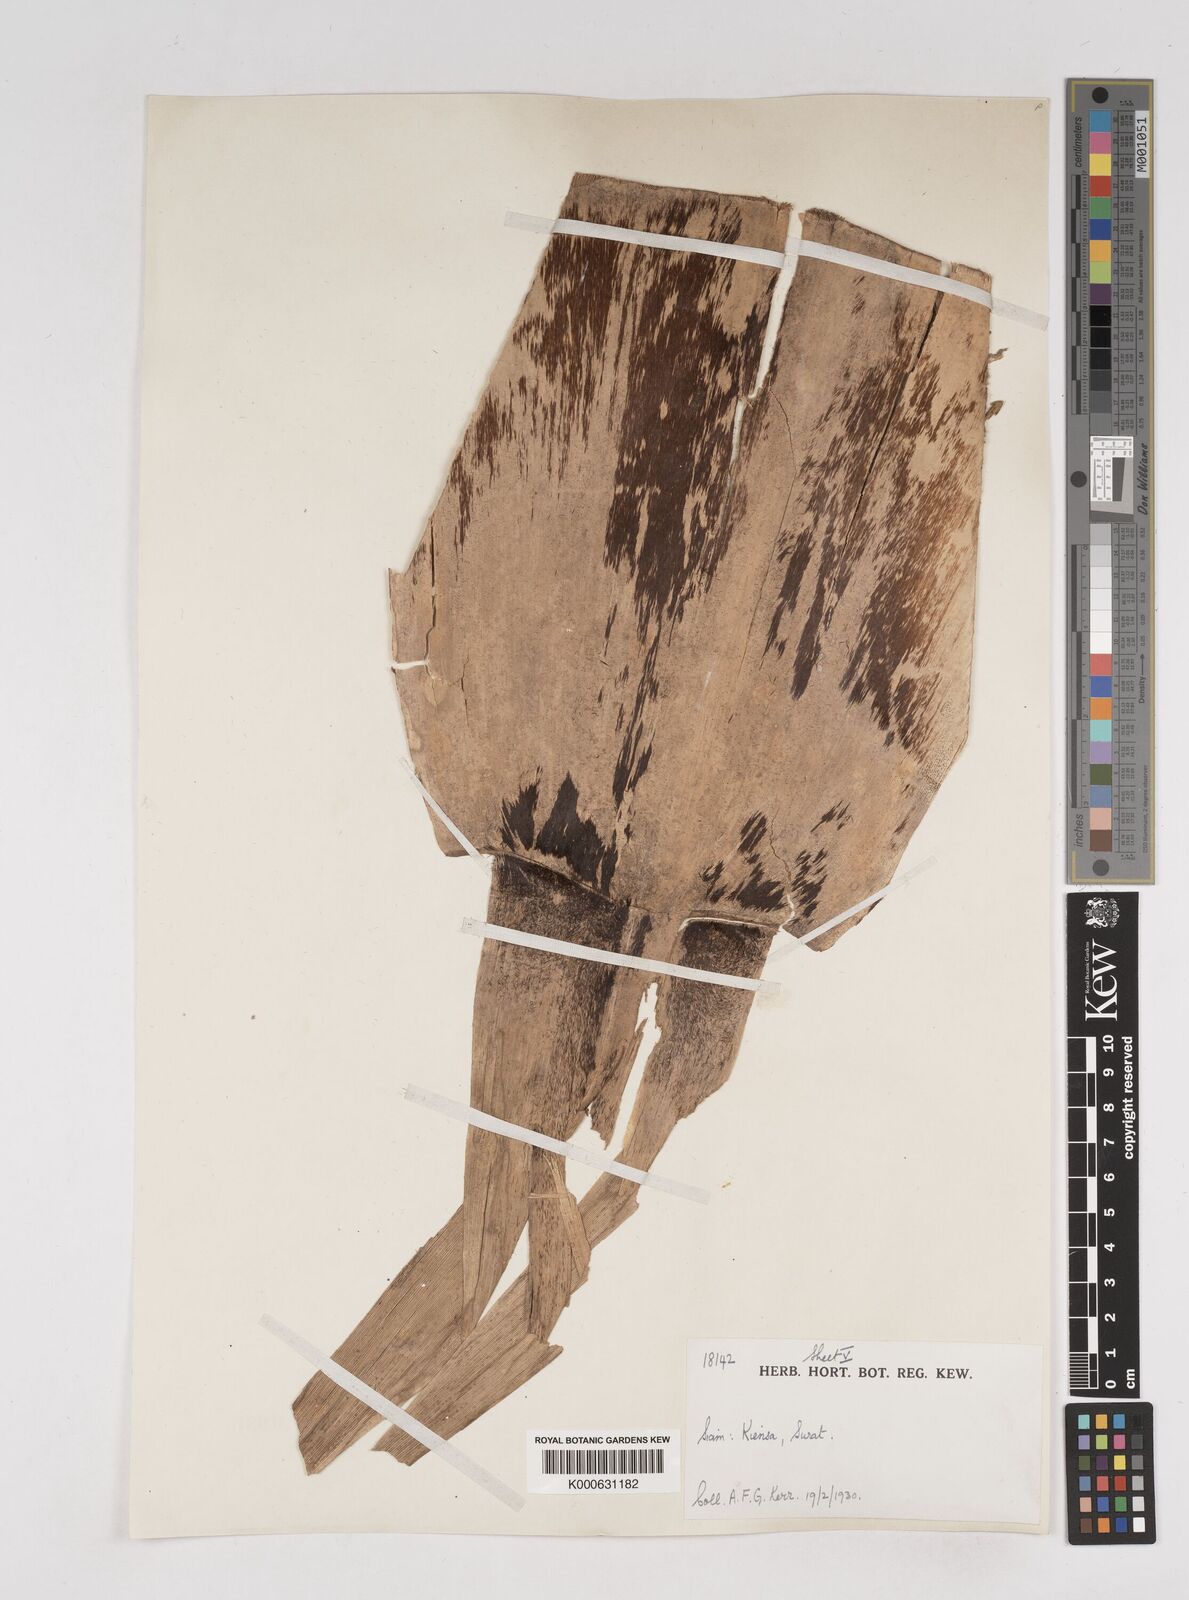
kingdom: Plantae
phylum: Tracheophyta
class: Liliopsida
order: Poales
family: Poaceae
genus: Gigantochloa
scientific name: Gigantochloa
